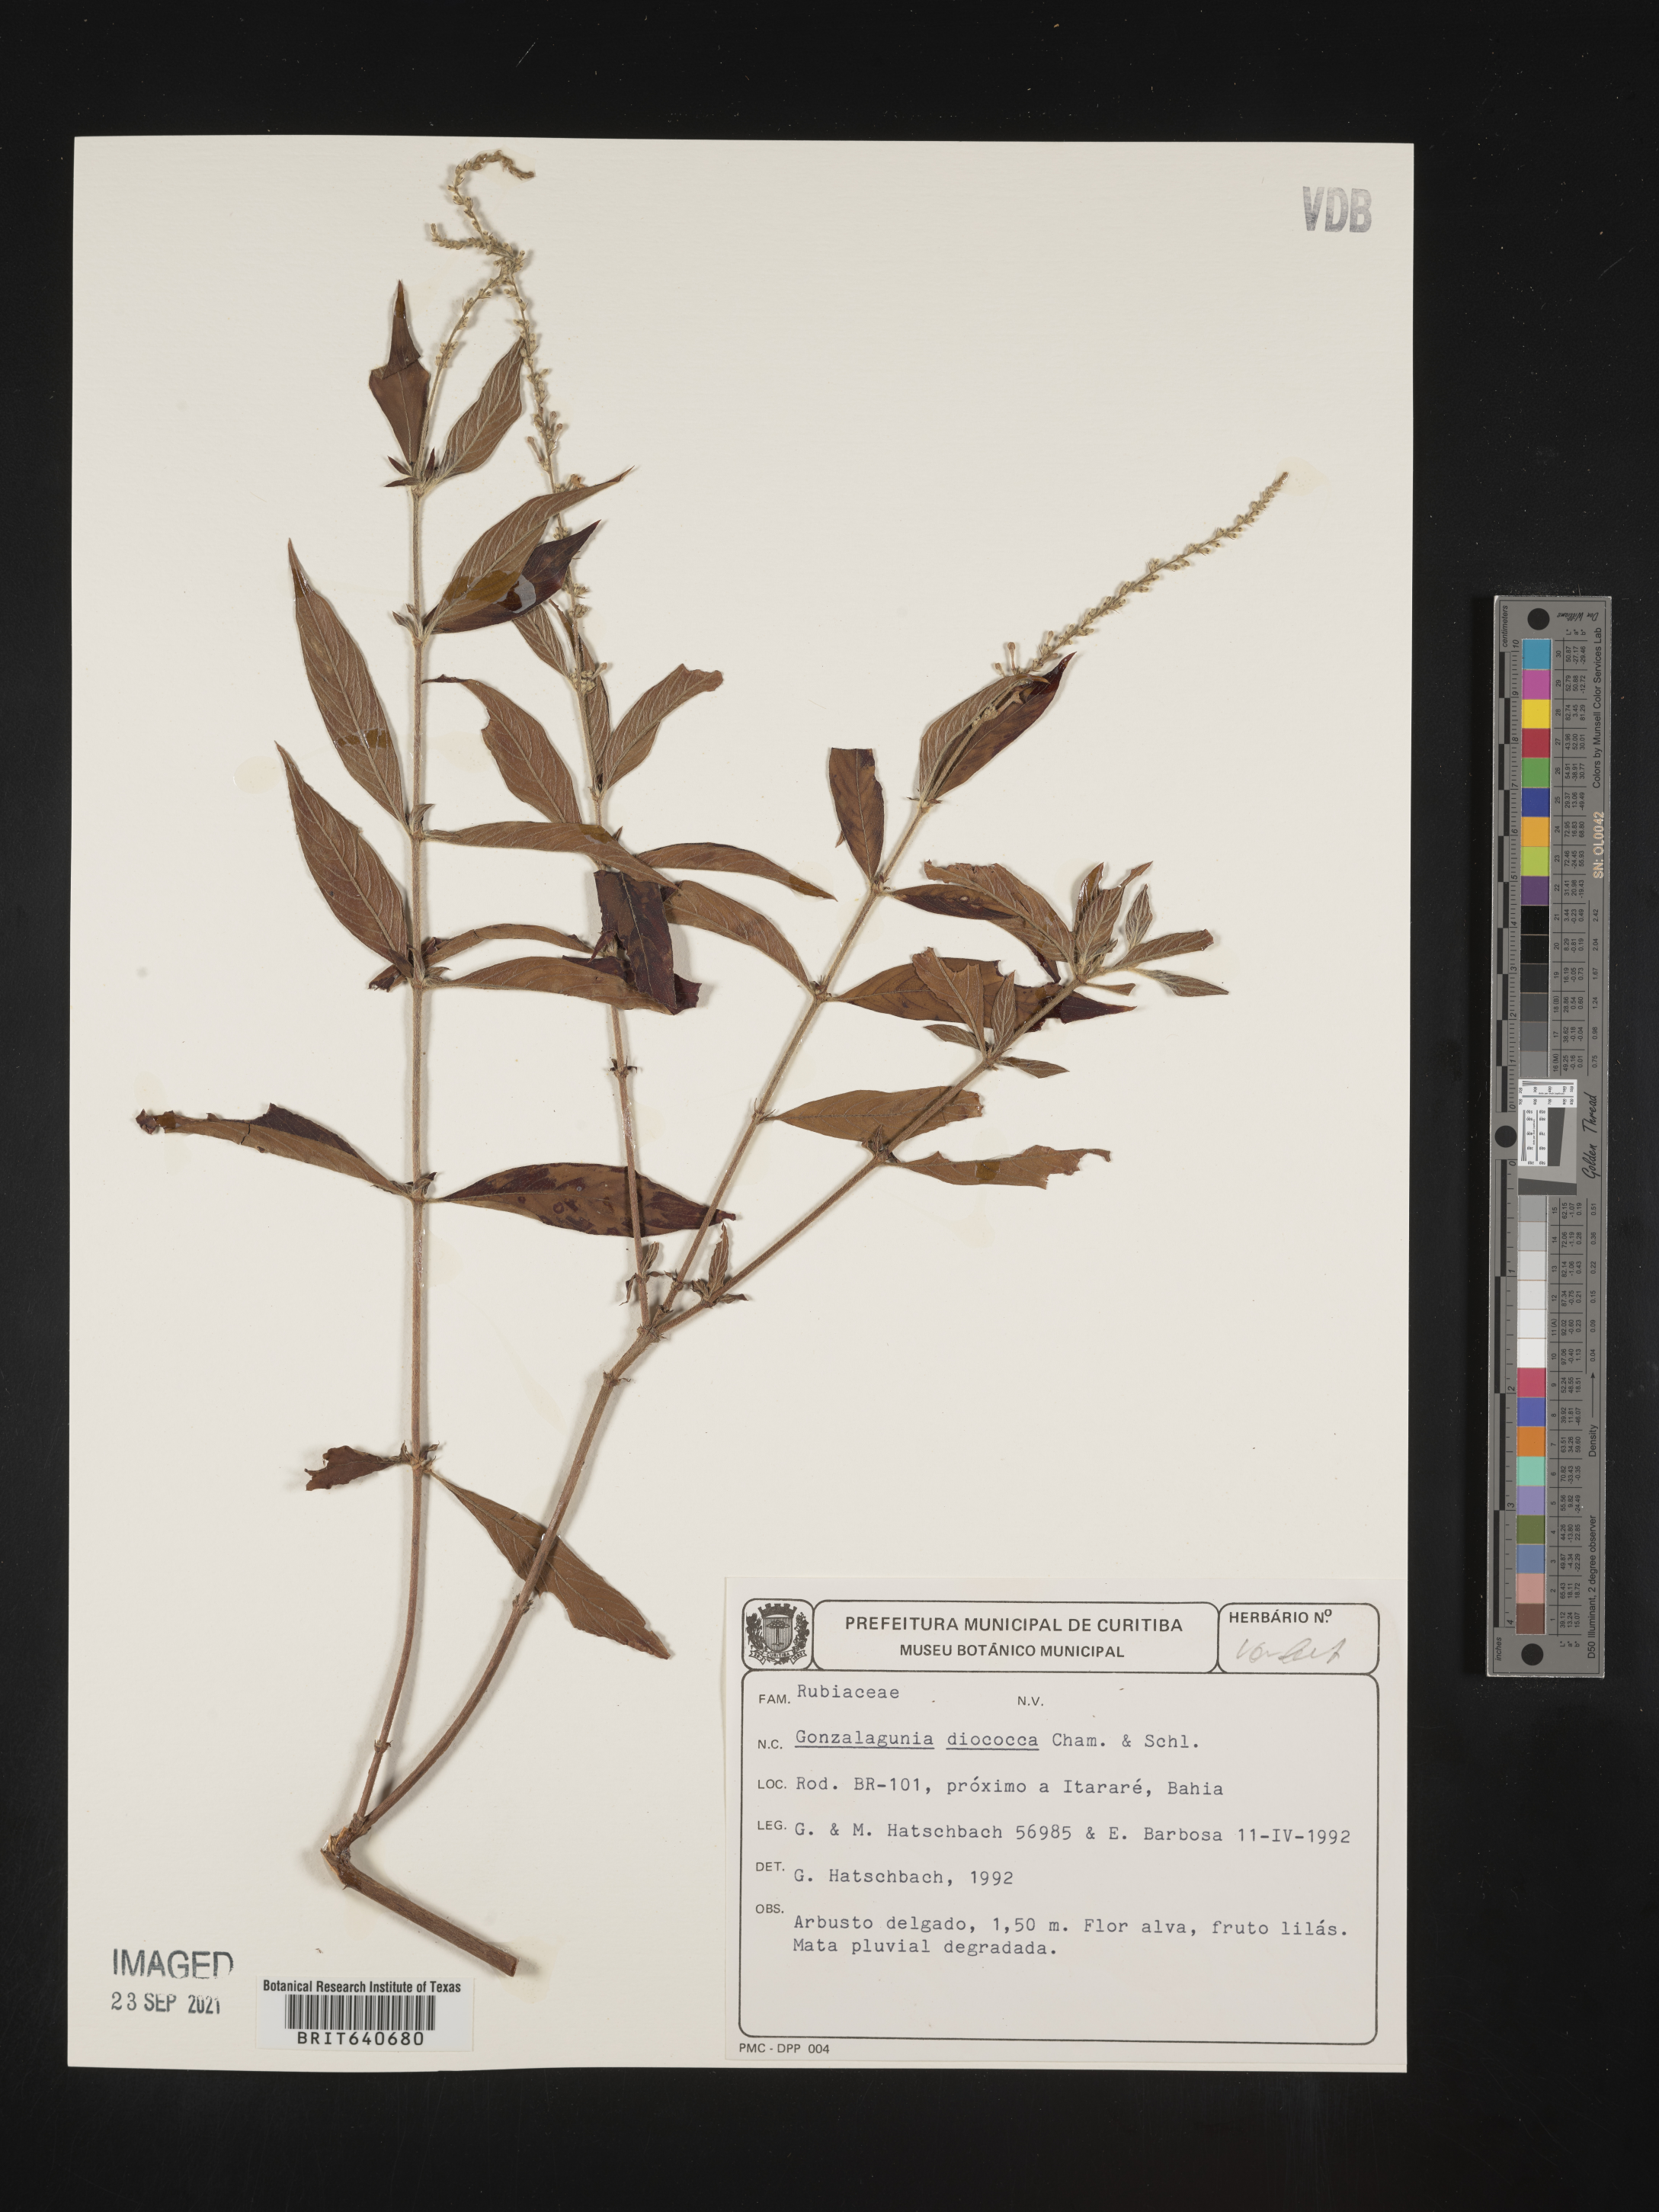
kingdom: Plantae
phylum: Tracheophyta
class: Magnoliopsida
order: Gentianales
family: Rubiaceae
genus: Gonzalagunia
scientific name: Gonzalagunia
